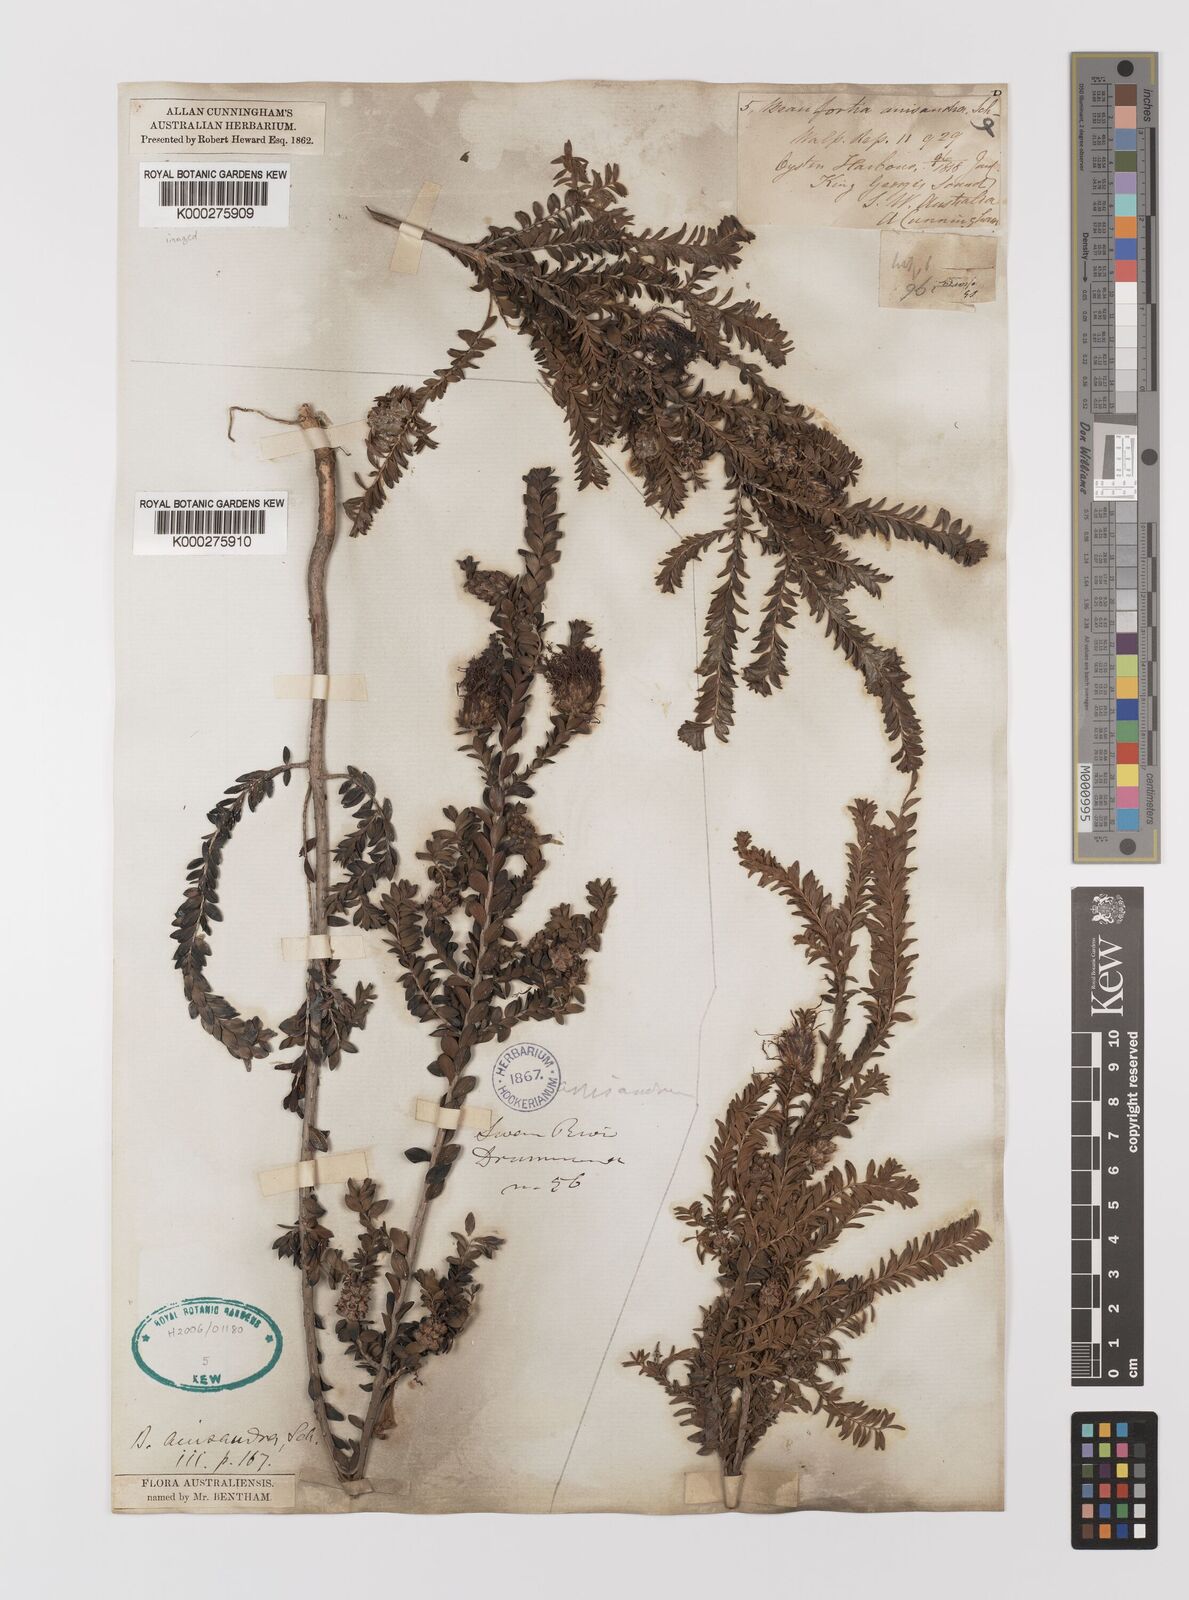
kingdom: Plantae
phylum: Tracheophyta
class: Magnoliopsida
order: Myrtales
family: Myrtaceae
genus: Melaleuca
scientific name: Melaleuca anisandra
